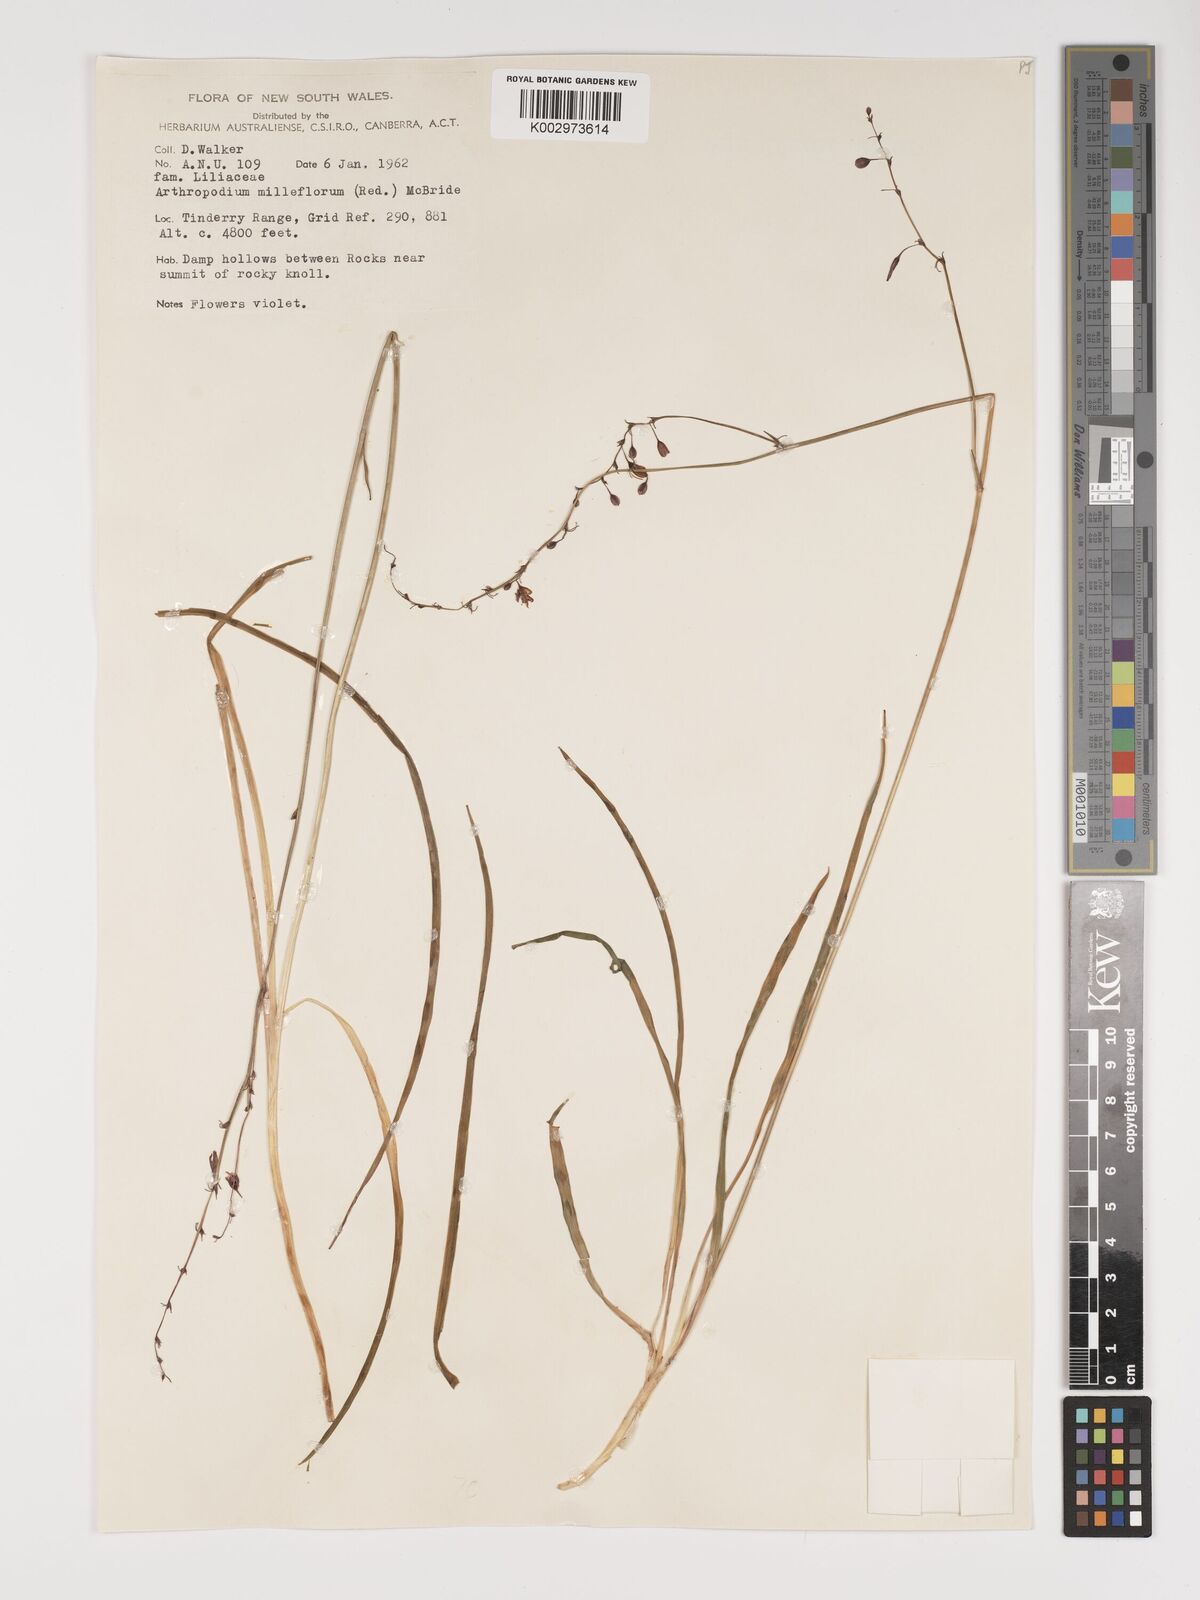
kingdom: Plantae
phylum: Tracheophyta
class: Liliopsida
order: Asparagales
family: Asparagaceae
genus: Arthropodium
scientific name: Arthropodium milleflorum
